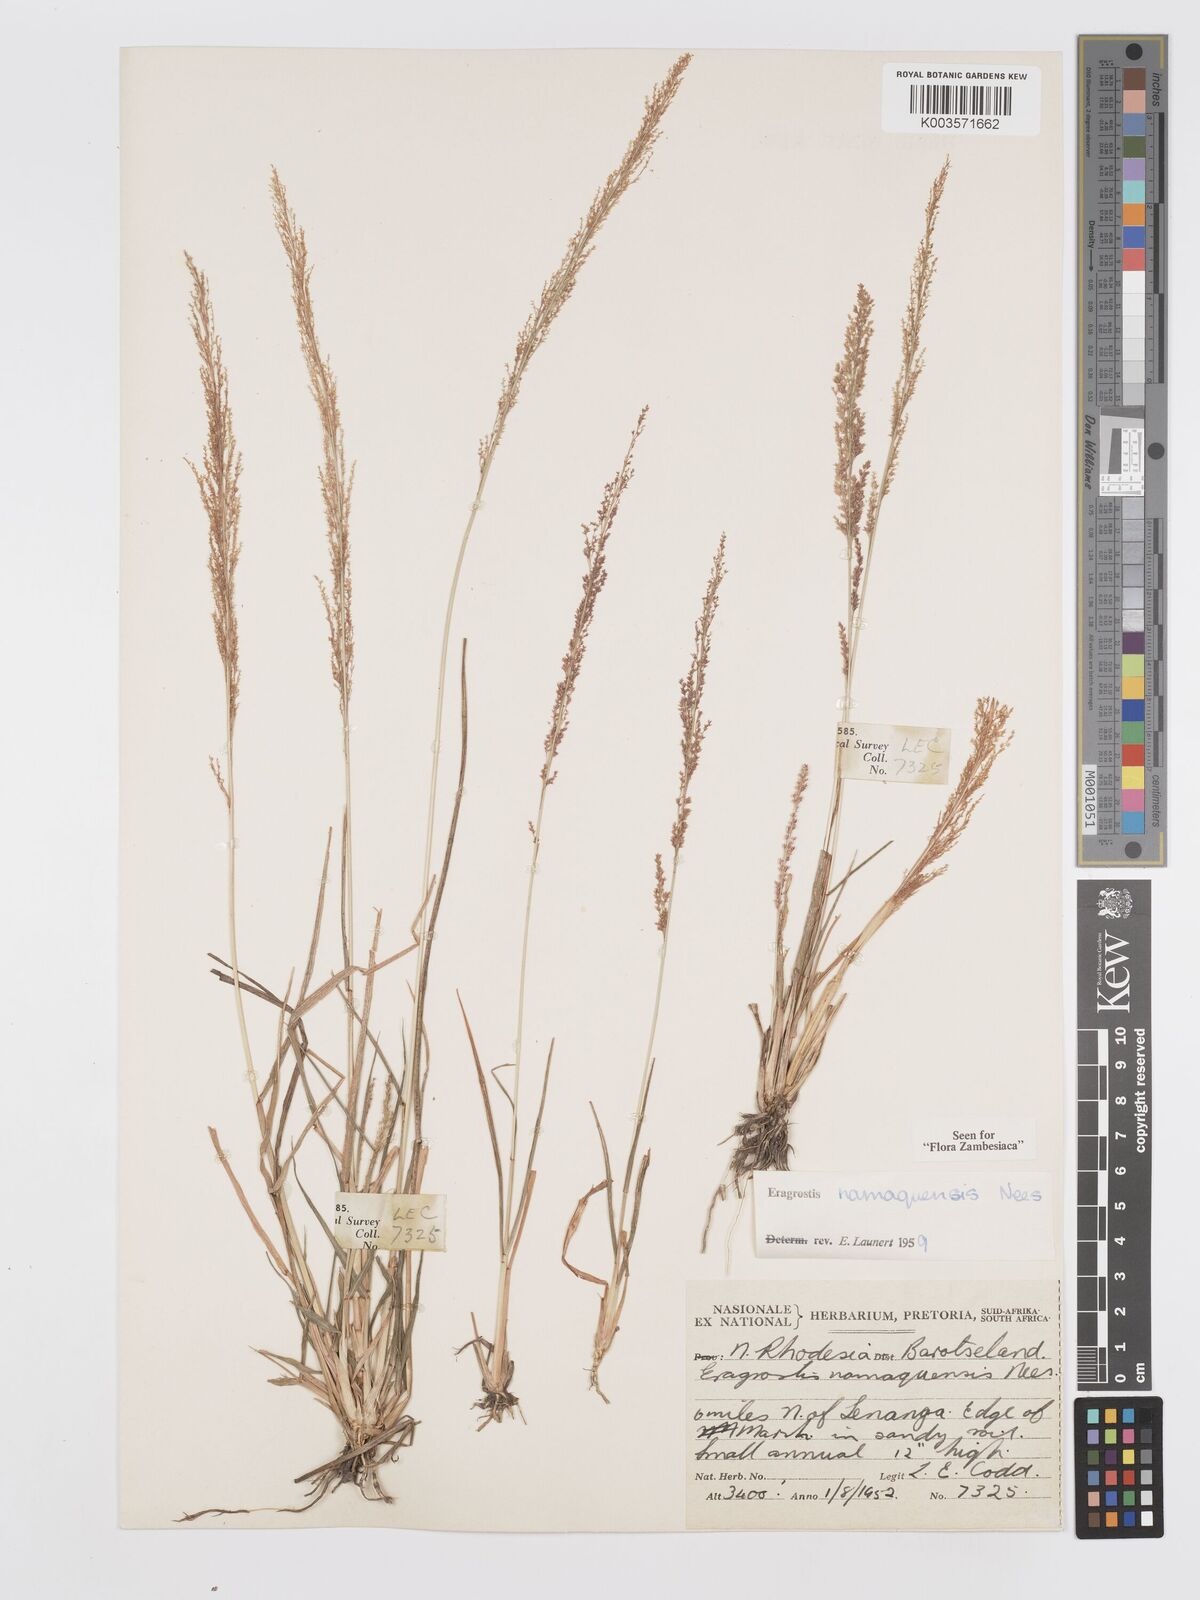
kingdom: Plantae
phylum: Tracheophyta
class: Liliopsida
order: Poales
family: Poaceae
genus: Eragrostis
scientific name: Eragrostis japonica
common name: Pond lovegrass
